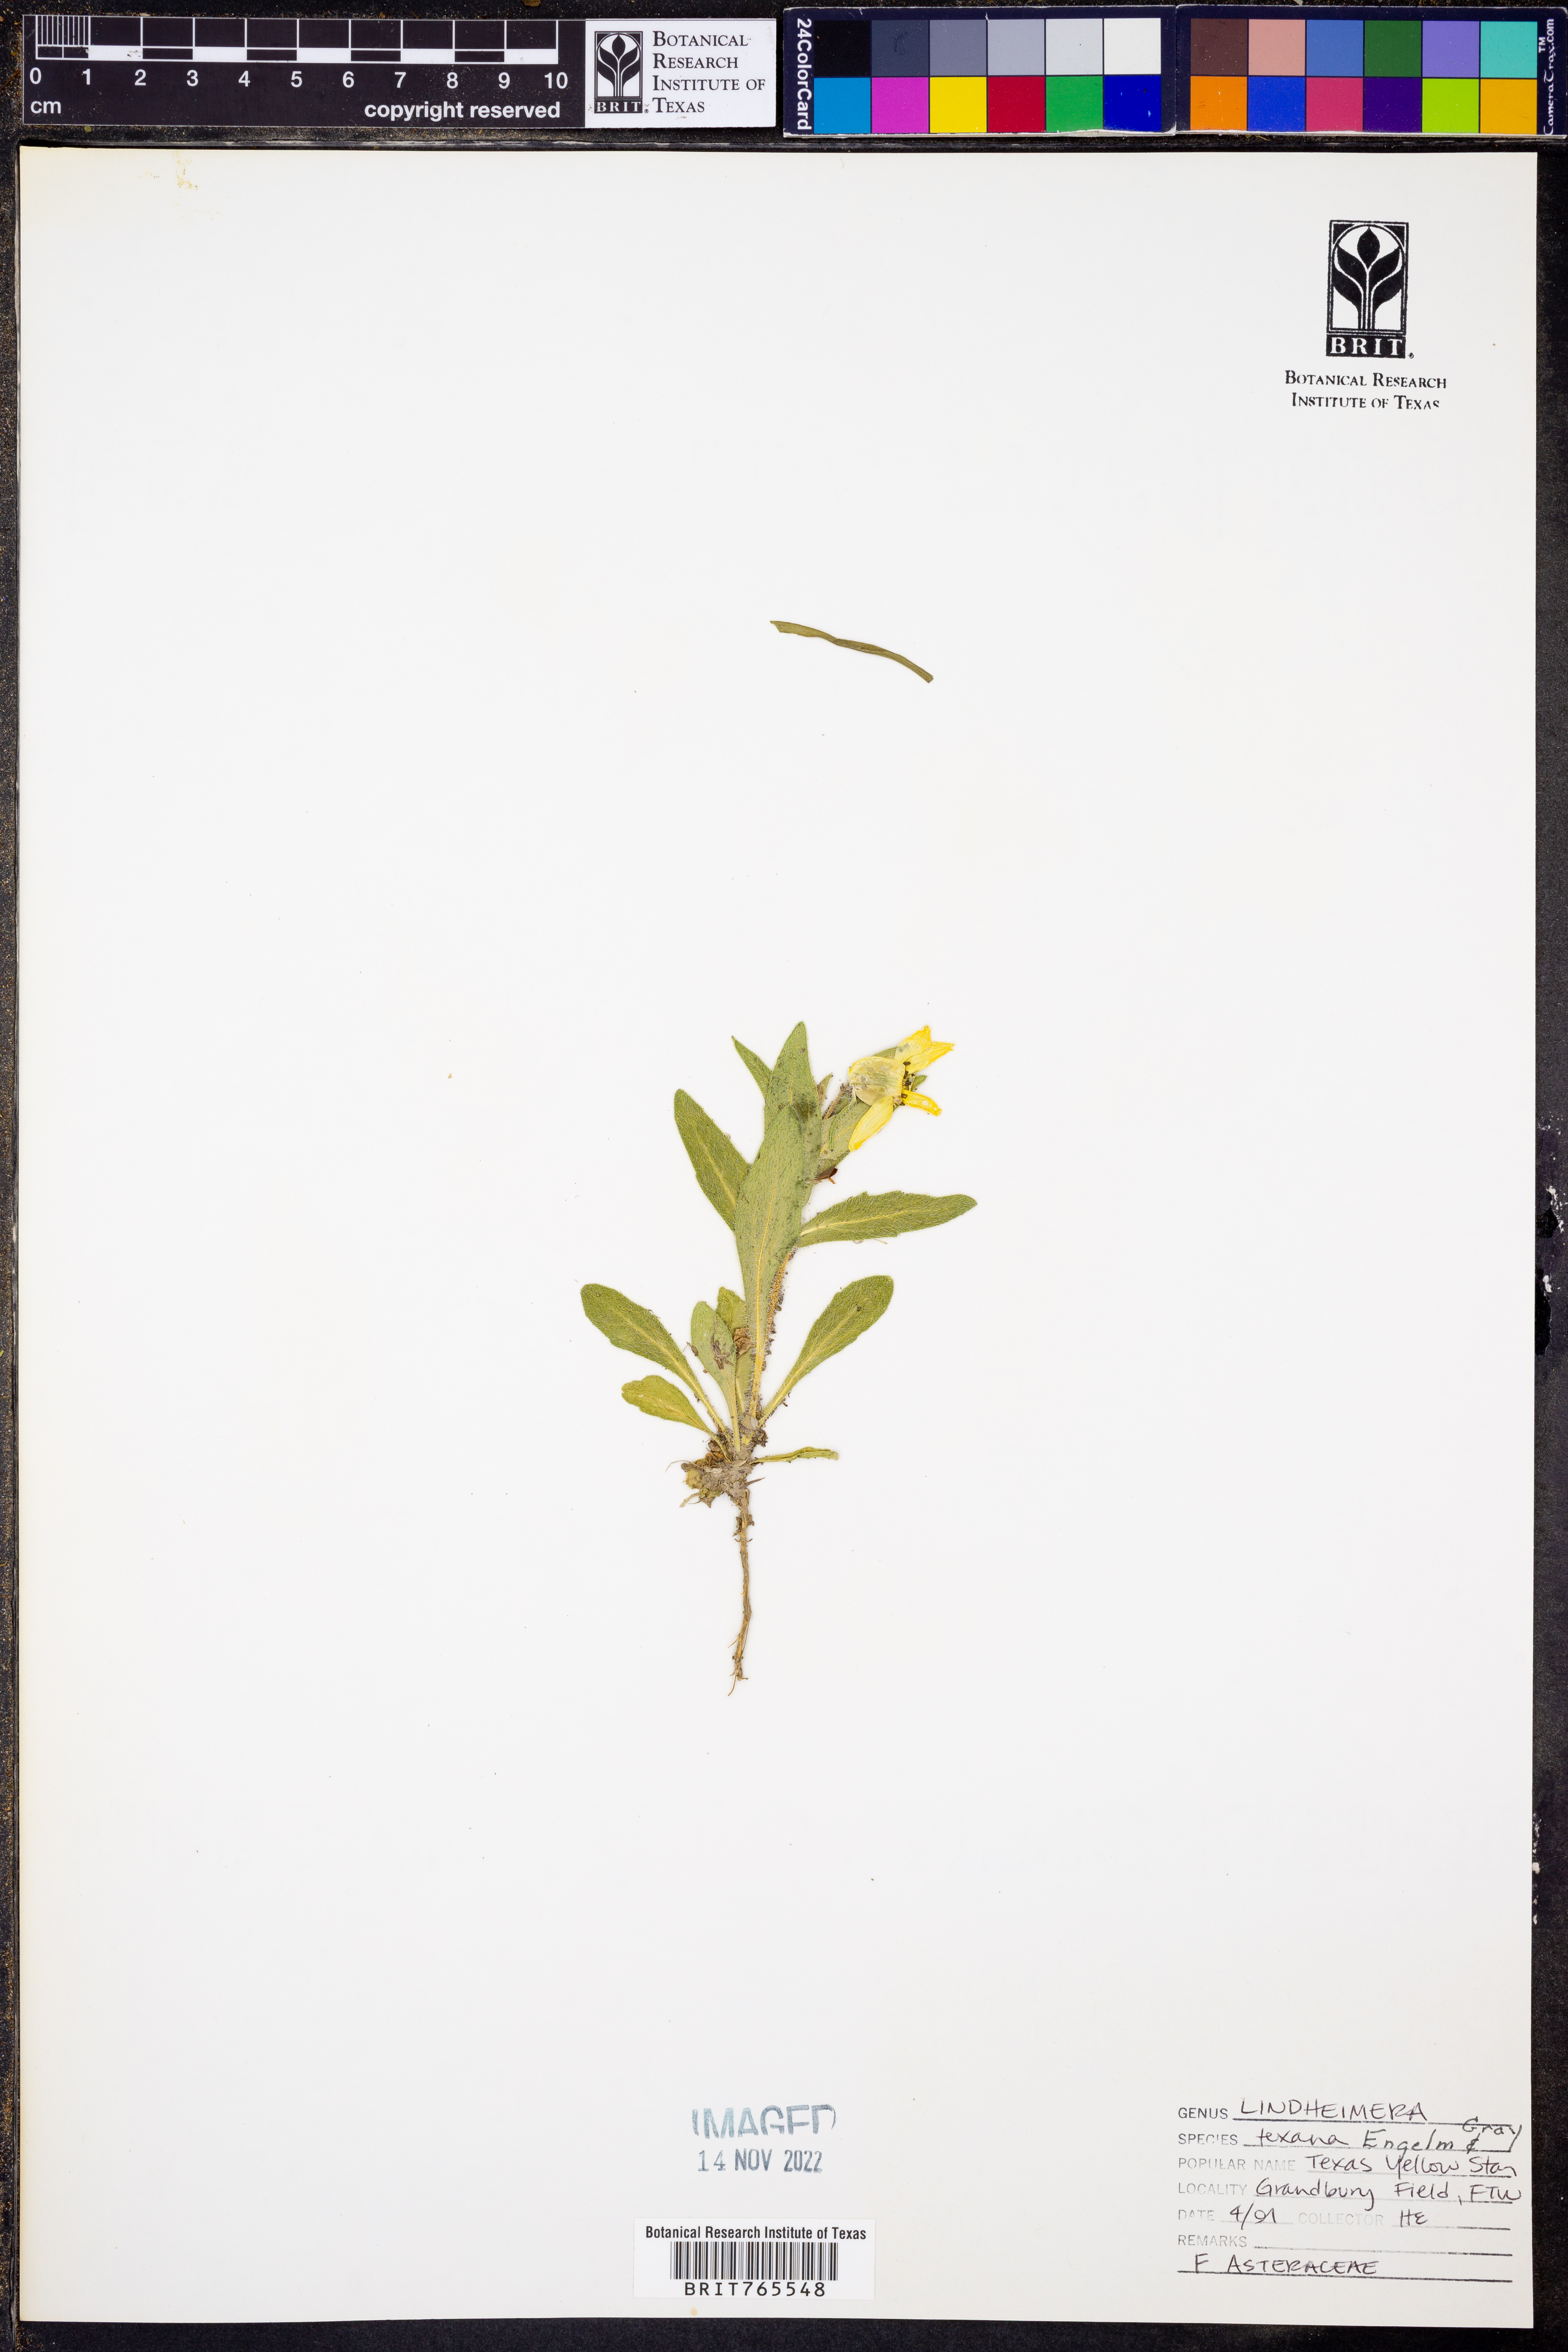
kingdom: Plantae
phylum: Tracheophyta
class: Magnoliopsida
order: Asterales
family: Asteraceae
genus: Lindheimera
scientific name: Lindheimera texana
